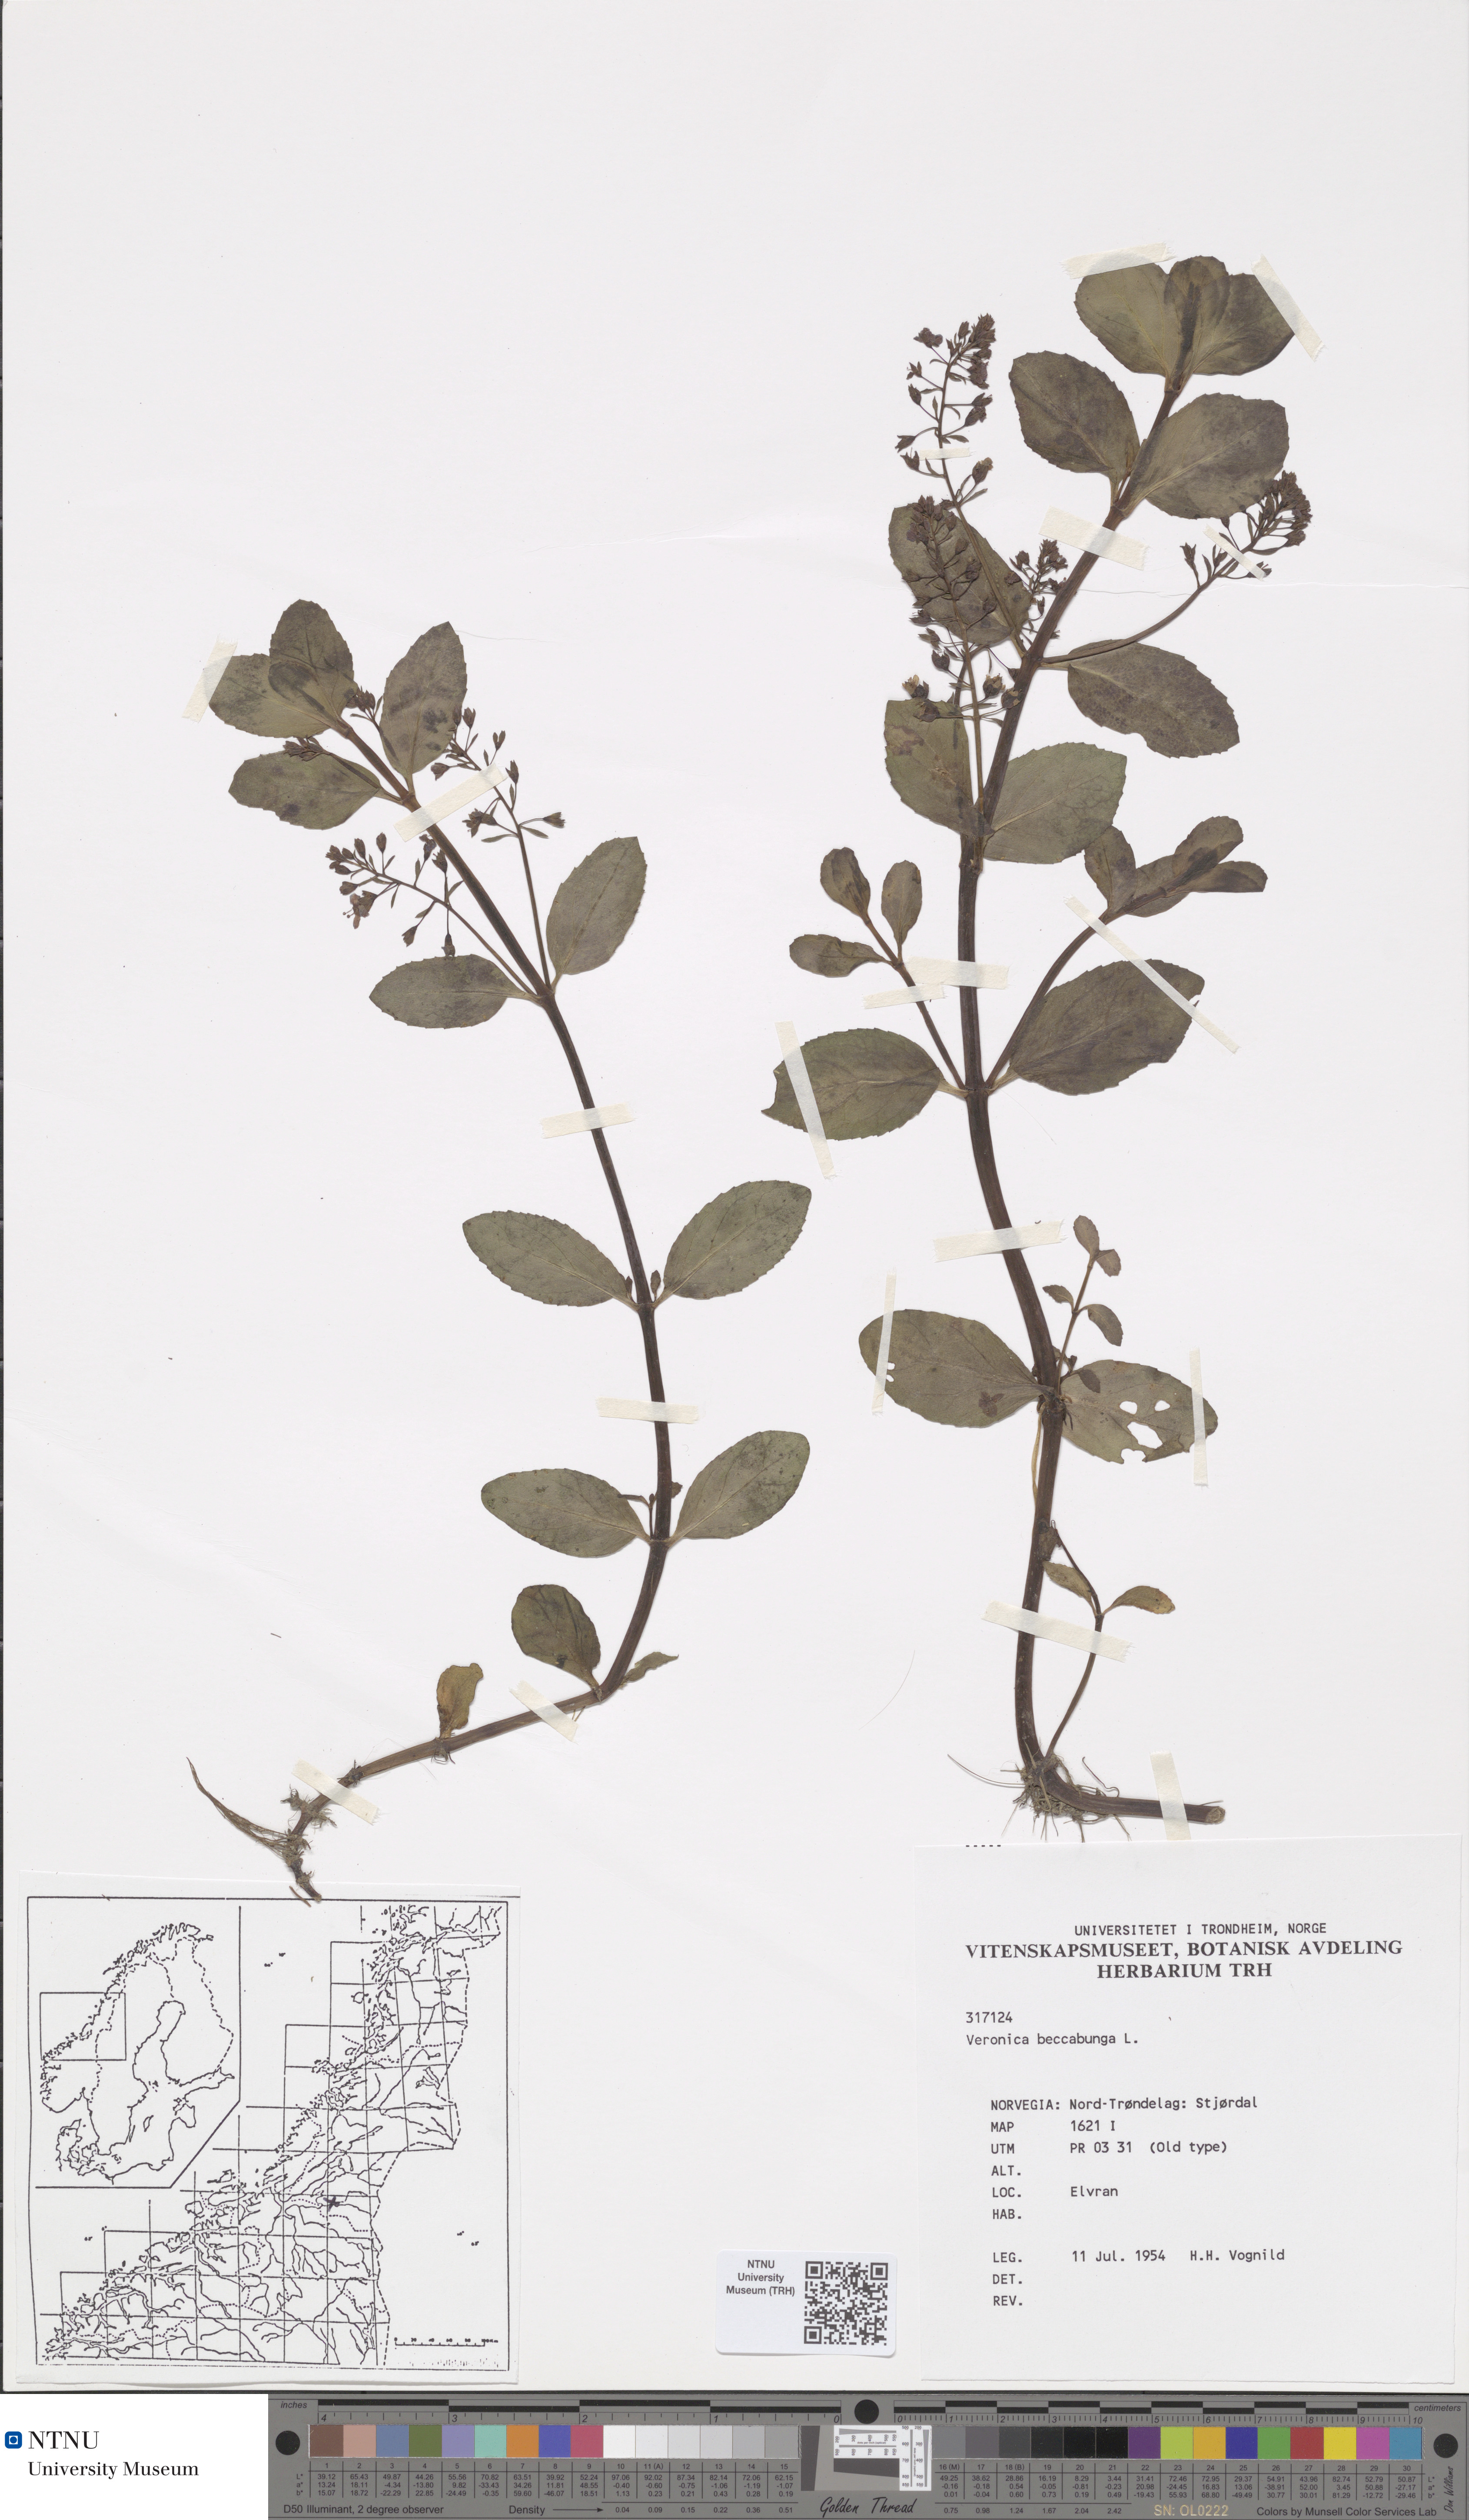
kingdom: Plantae
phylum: Tracheophyta
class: Magnoliopsida
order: Lamiales
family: Plantaginaceae
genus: Veronica
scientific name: Veronica beccabunga
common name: Brooklime
